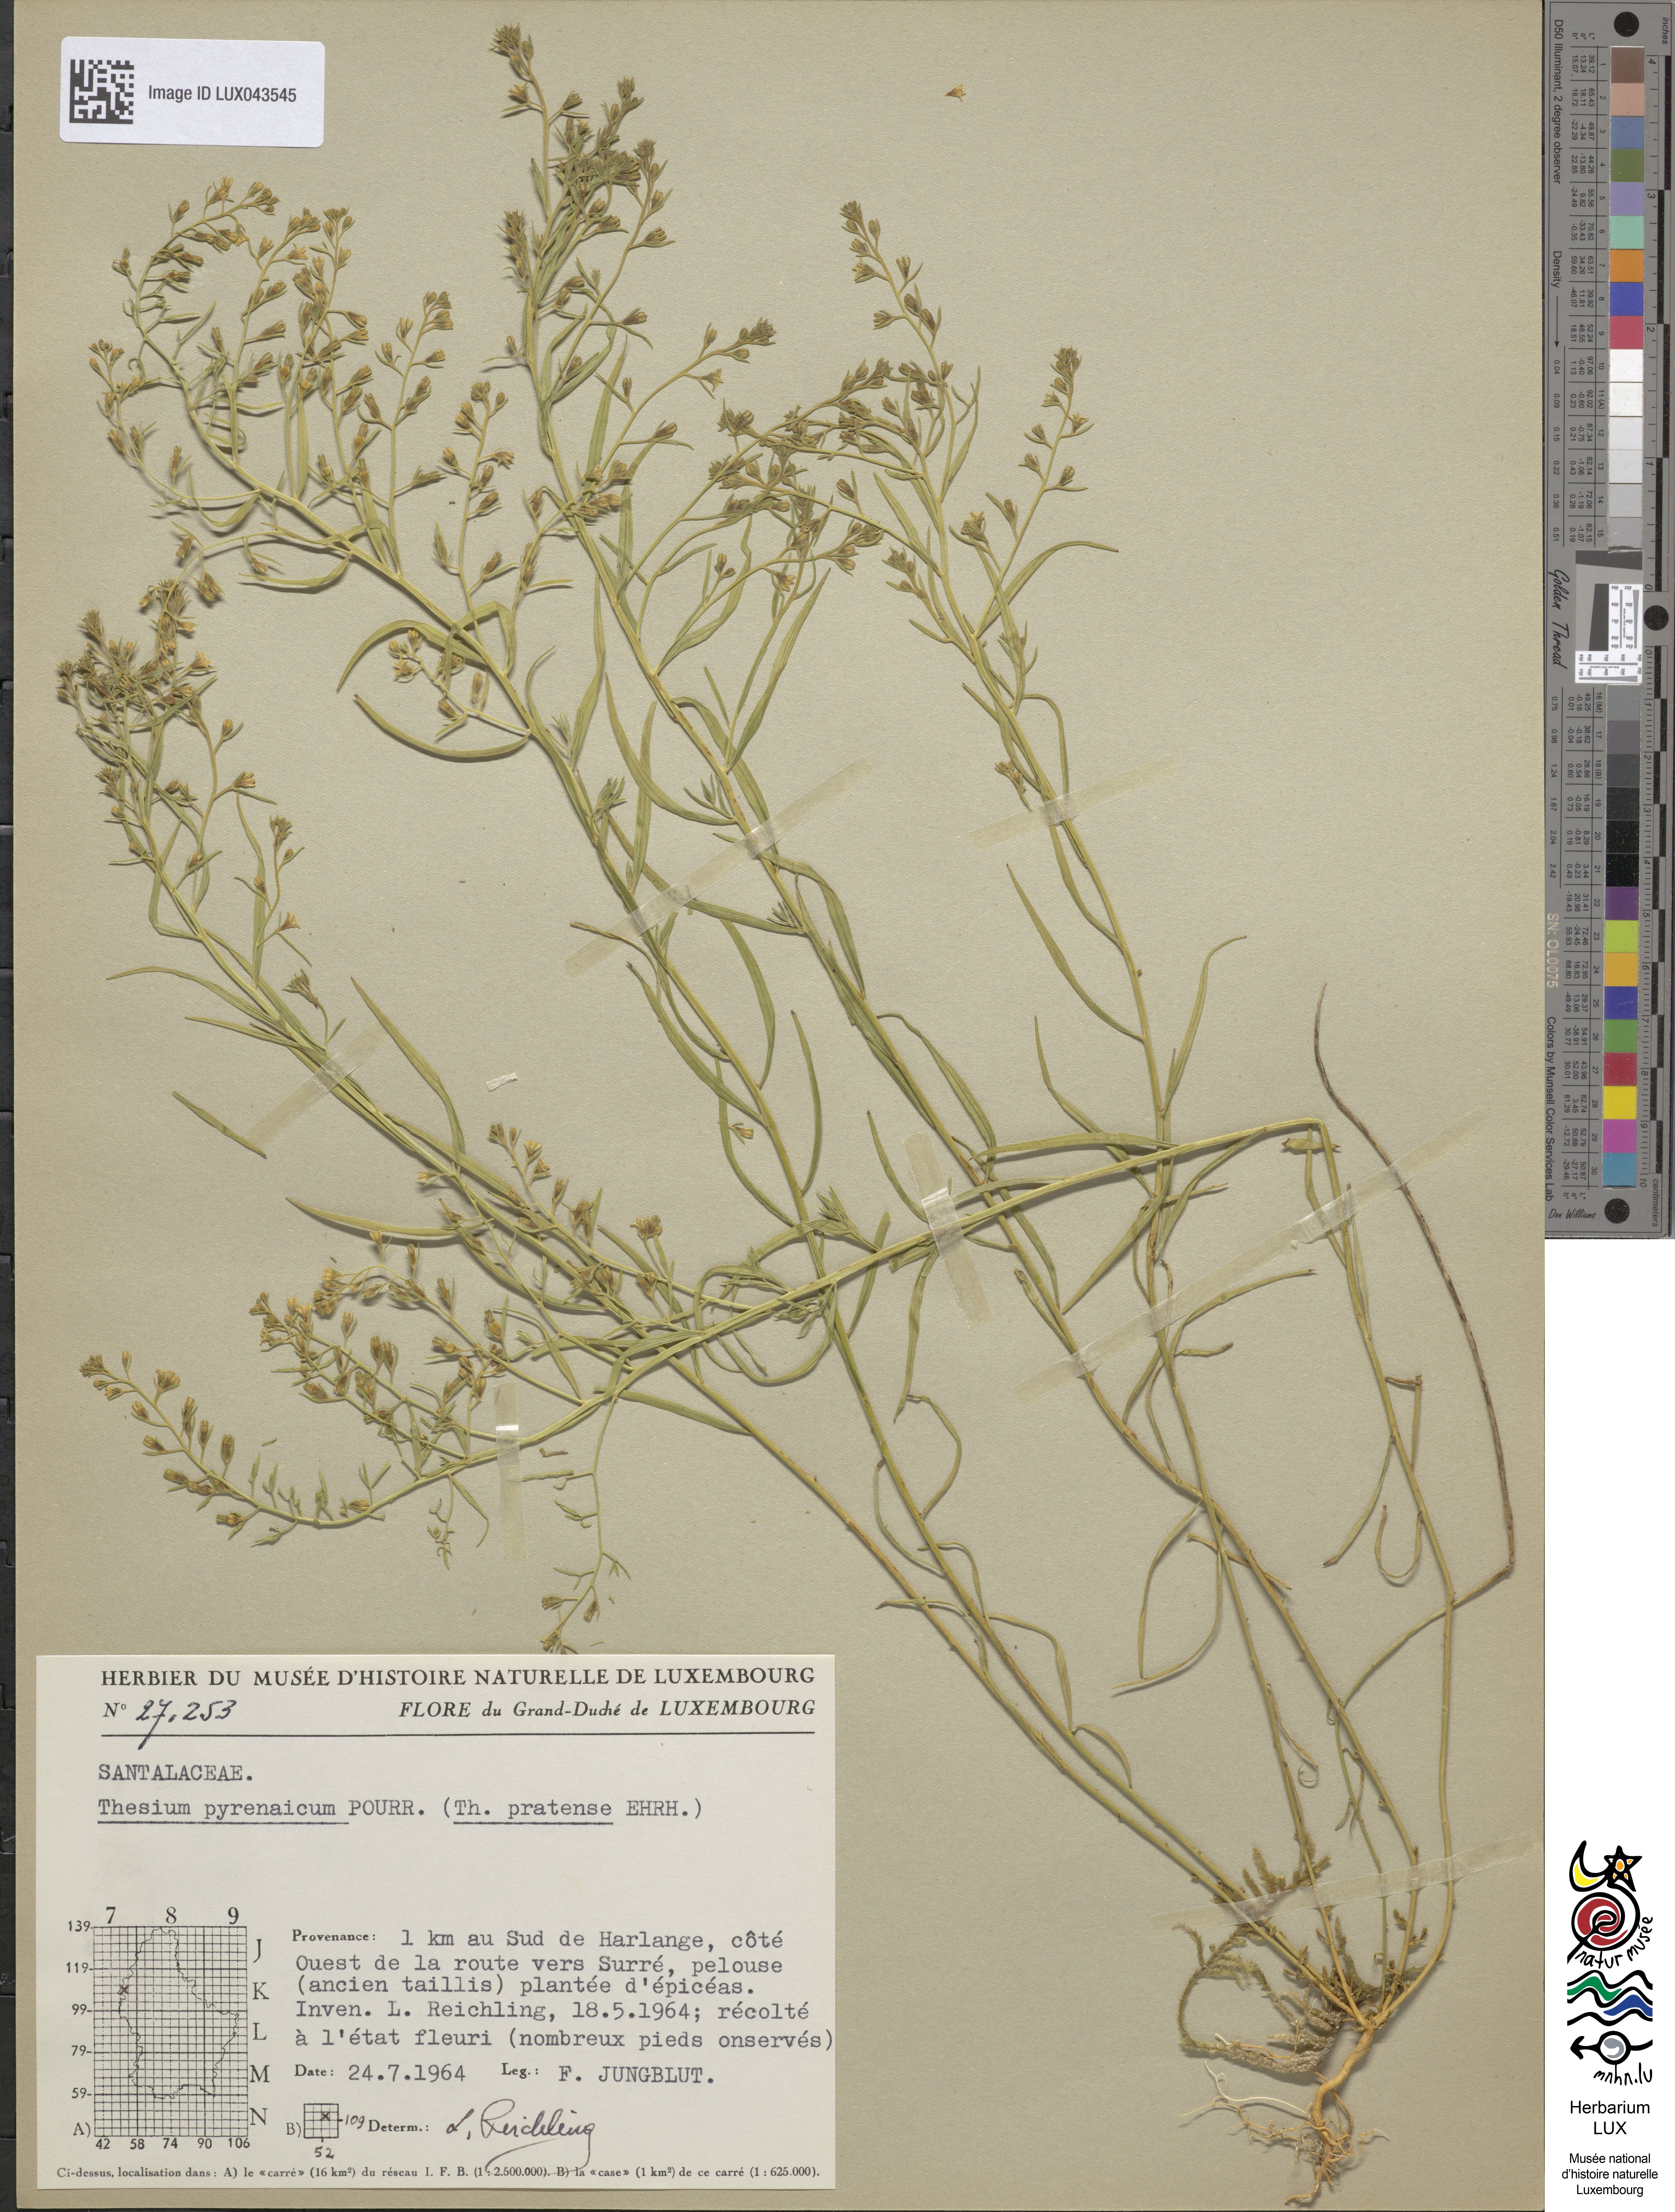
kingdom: Plantae
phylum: Tracheophyta
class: Magnoliopsida
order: Santalales
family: Thesiaceae
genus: Thesium
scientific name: Thesium pyrenaicum
